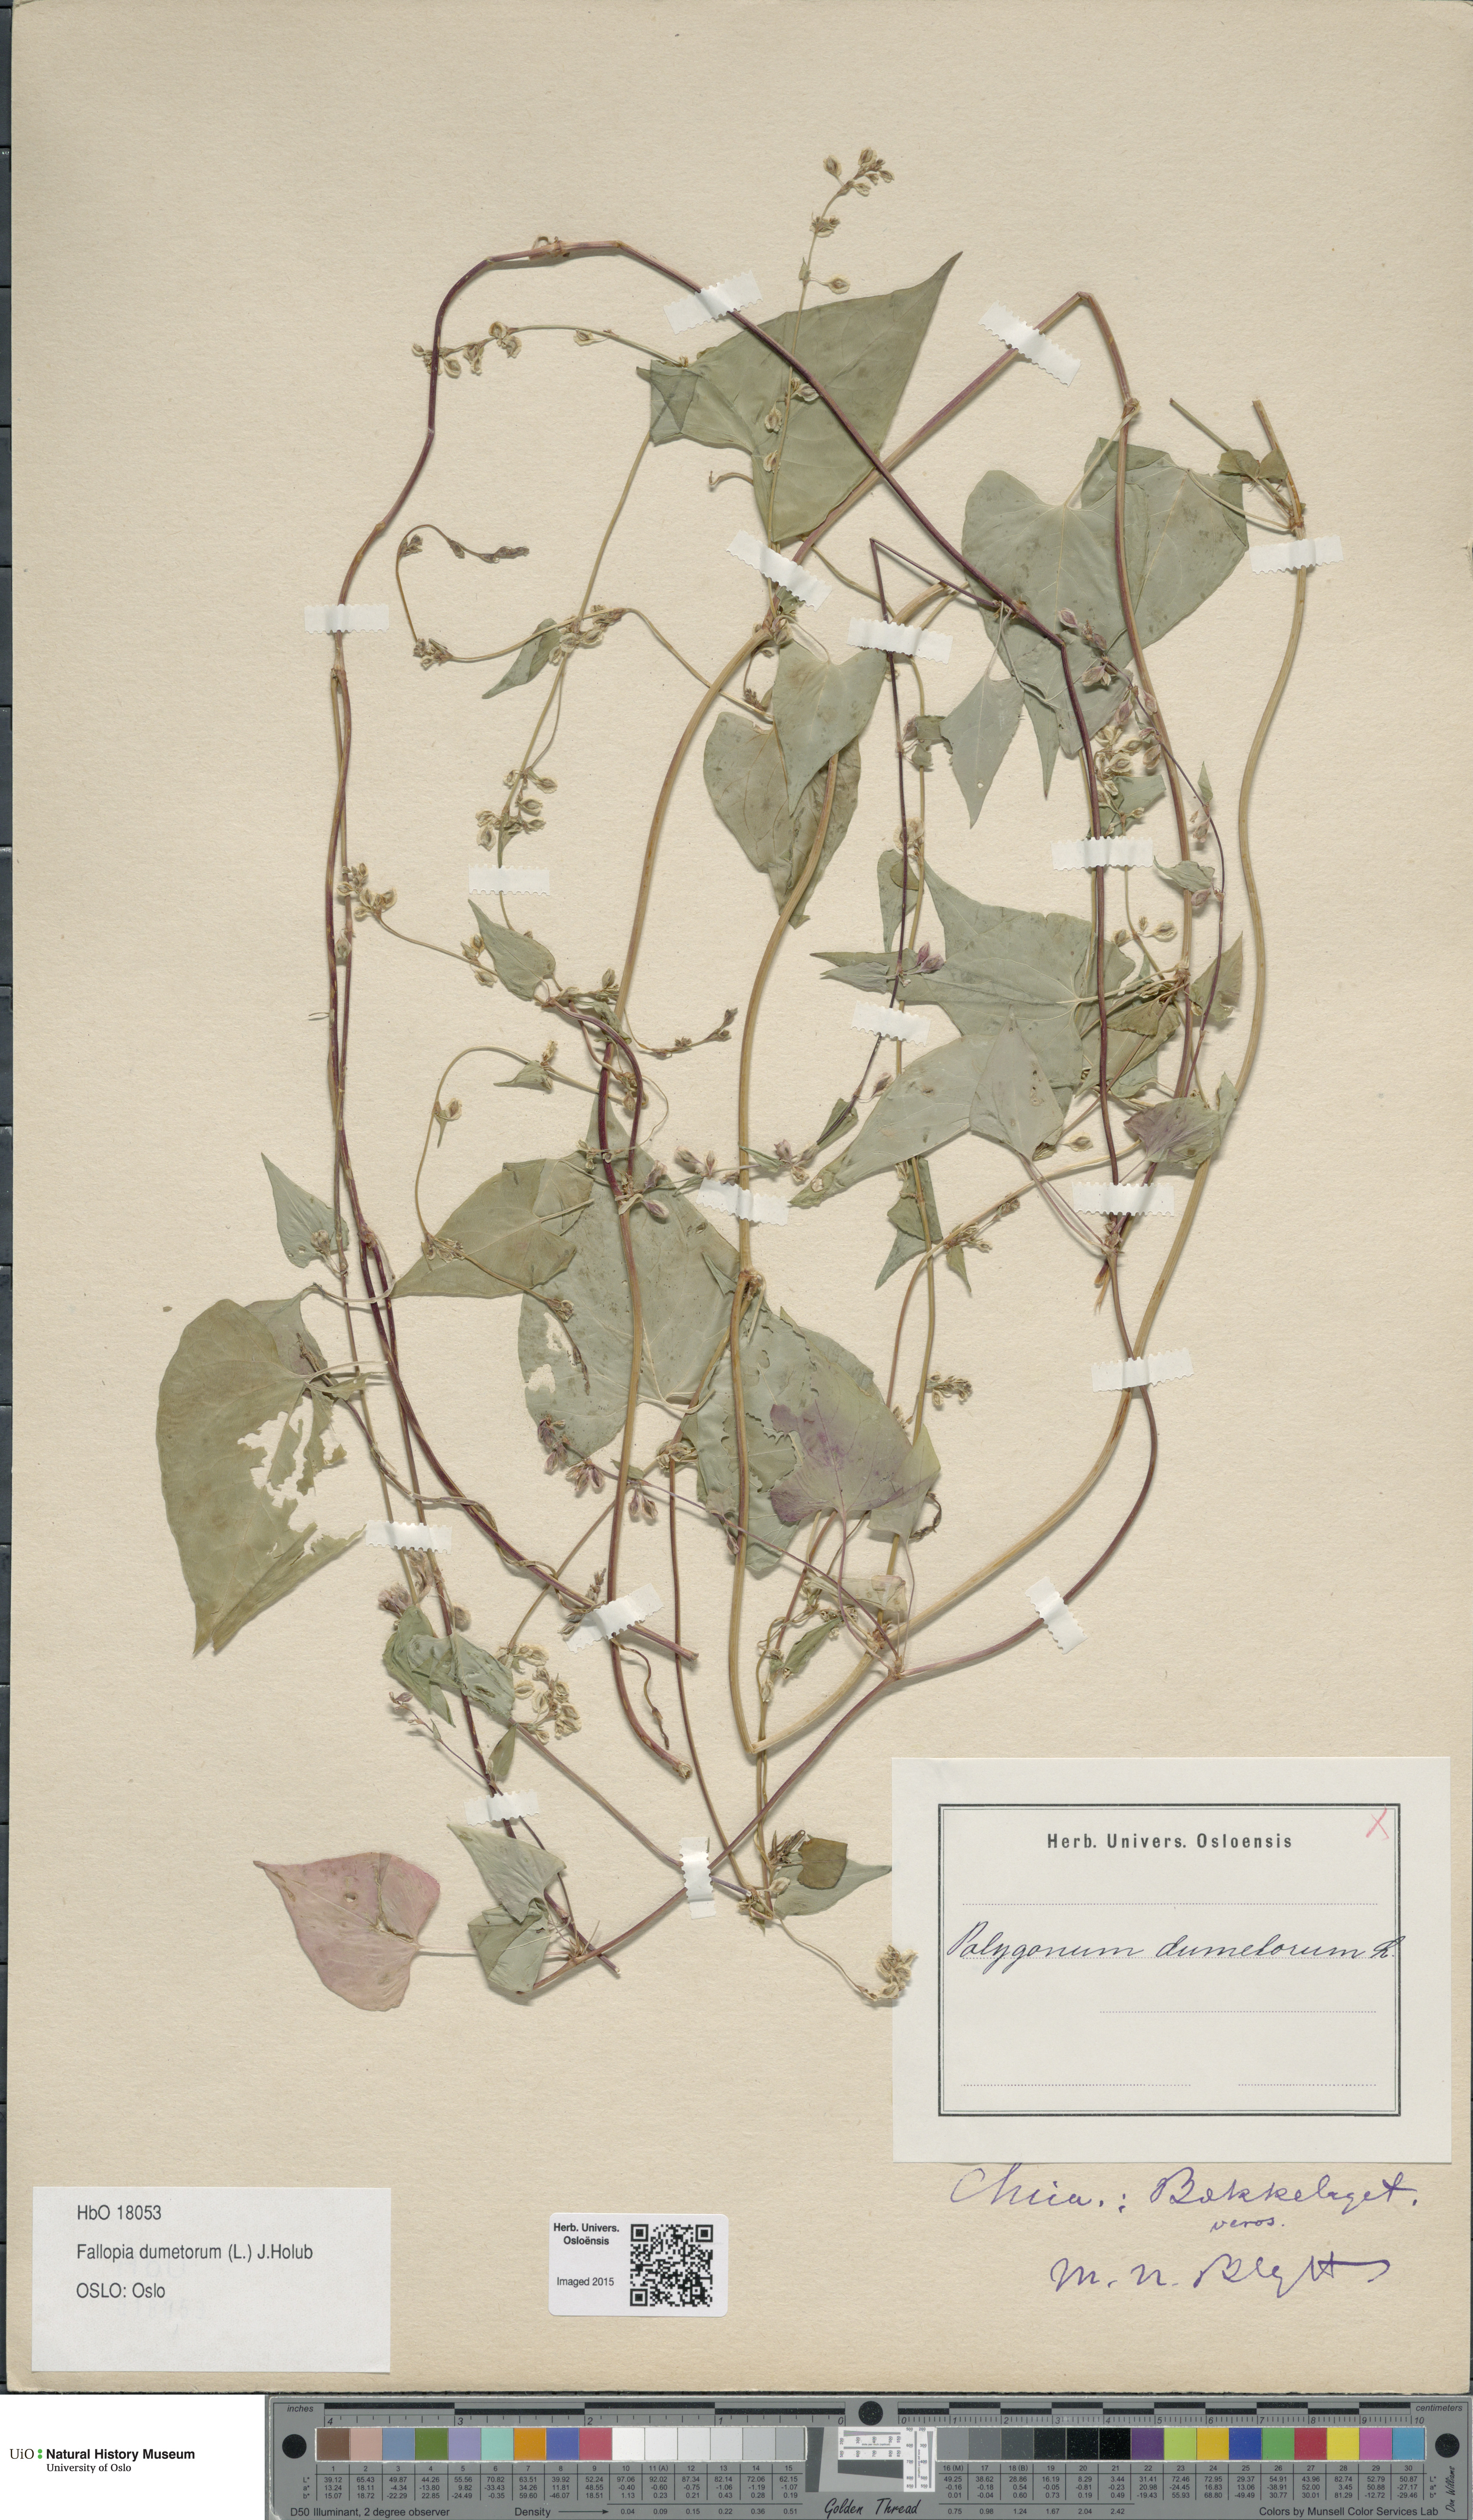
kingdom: Plantae
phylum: Tracheophyta
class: Magnoliopsida
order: Caryophyllales
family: Polygonaceae
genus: Fallopia
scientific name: Fallopia dumetorum
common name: Copse-bindweed
